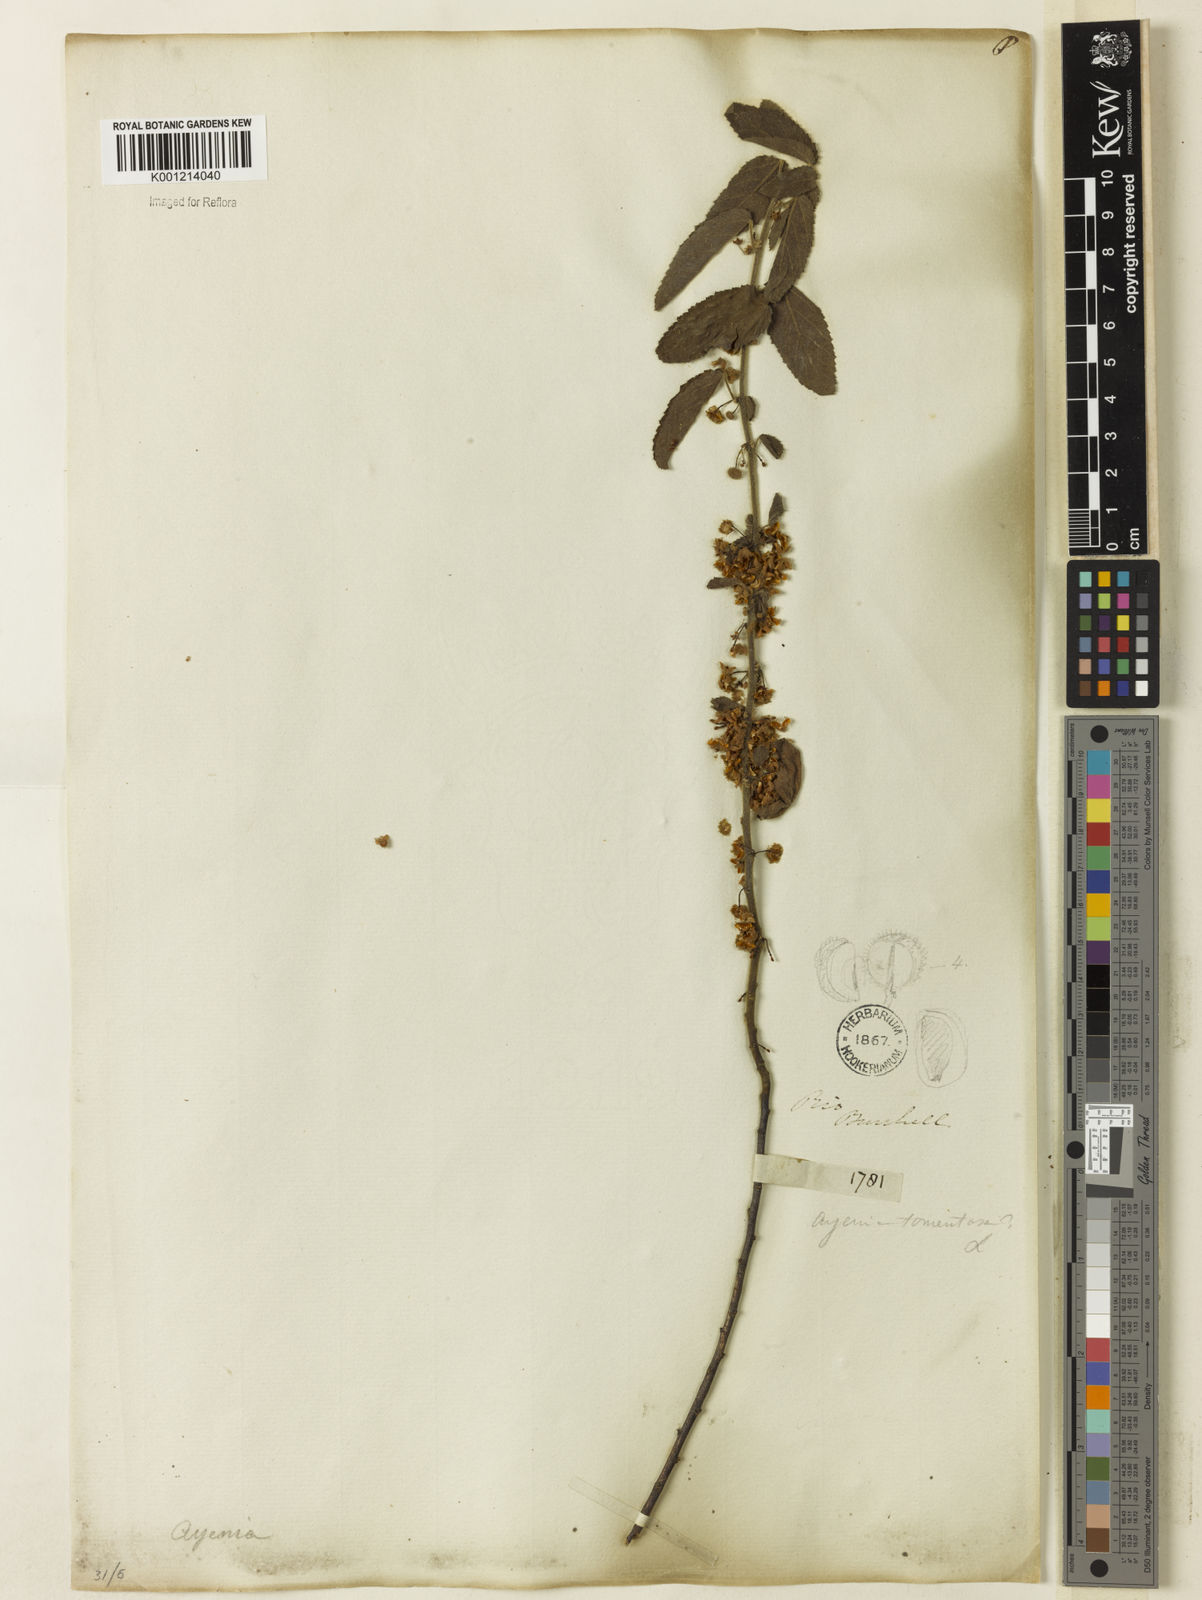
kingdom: Plantae
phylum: Tracheophyta
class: Magnoliopsida
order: Malvales
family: Malvaceae
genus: Ayenia
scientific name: Ayenia tomentosa
